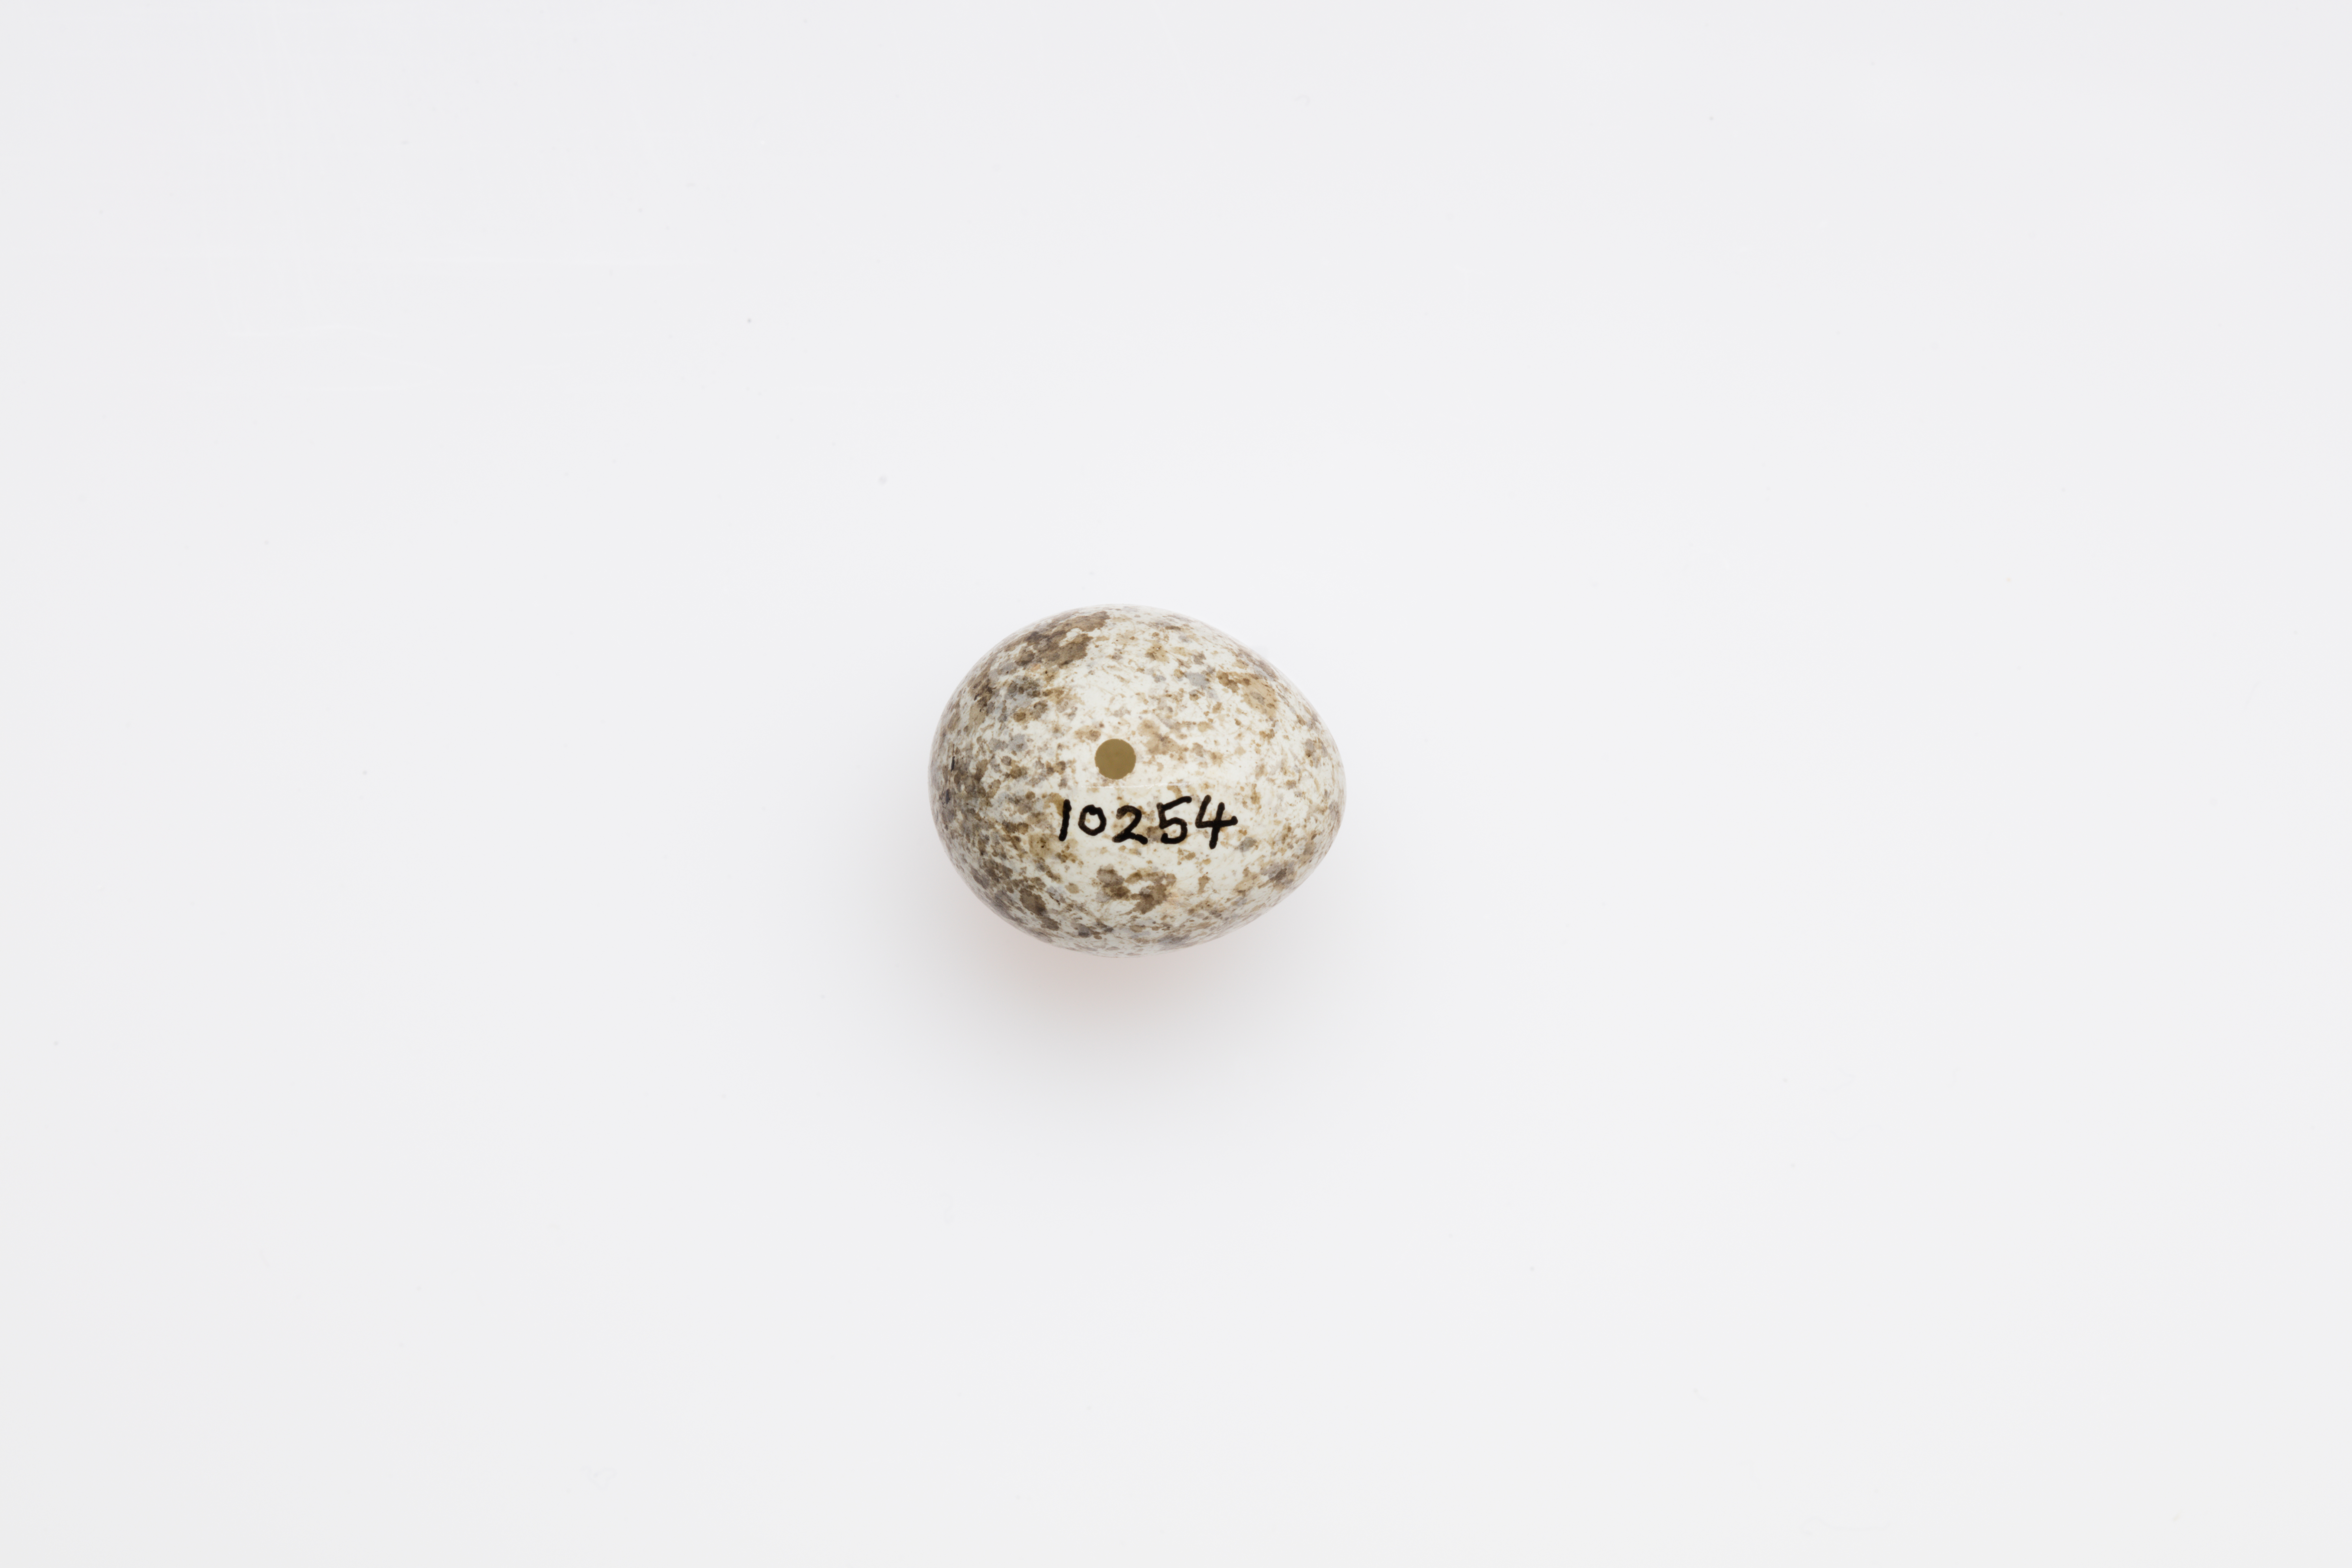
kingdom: Animalia
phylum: Chordata
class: Aves
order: Passeriformes
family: Acrocephalidae
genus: Acrocephalus
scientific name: Acrocephalus scirpaceus
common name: Eurasian reed warbler
